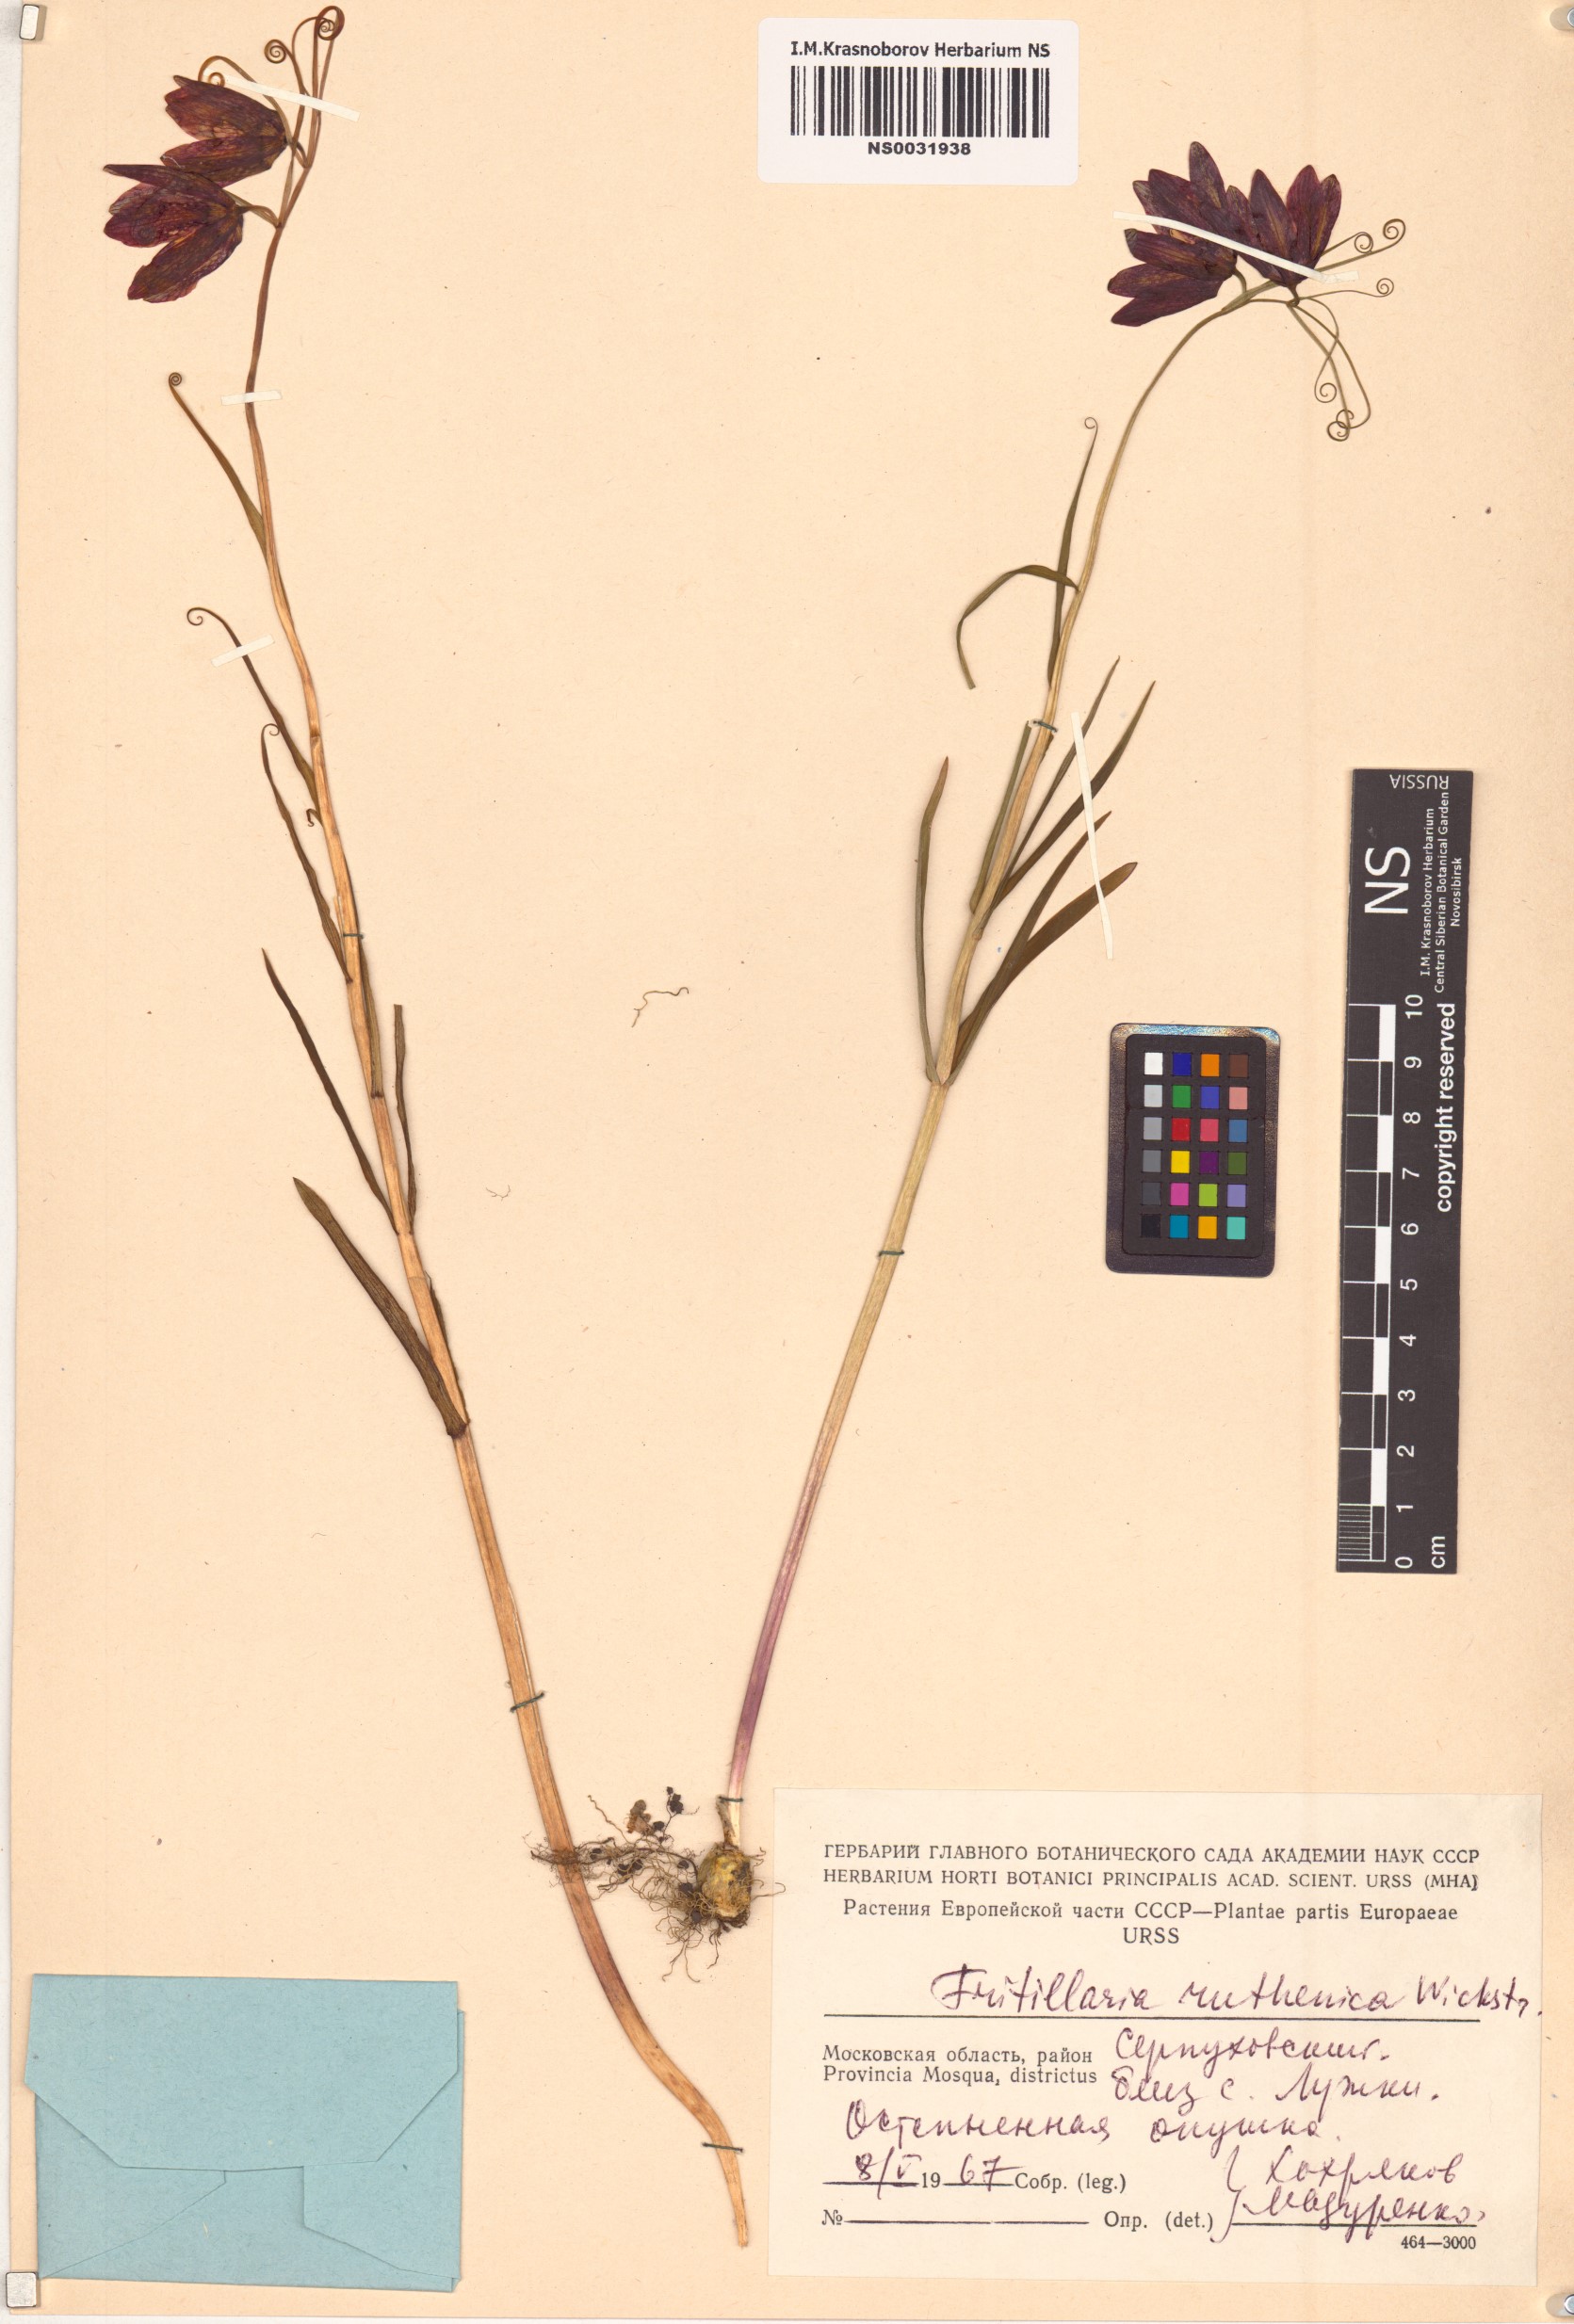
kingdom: Plantae
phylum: Tracheophyta
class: Liliopsida
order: Liliales
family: Liliaceae
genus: Fritillaria
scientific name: Fritillaria ruthenica
